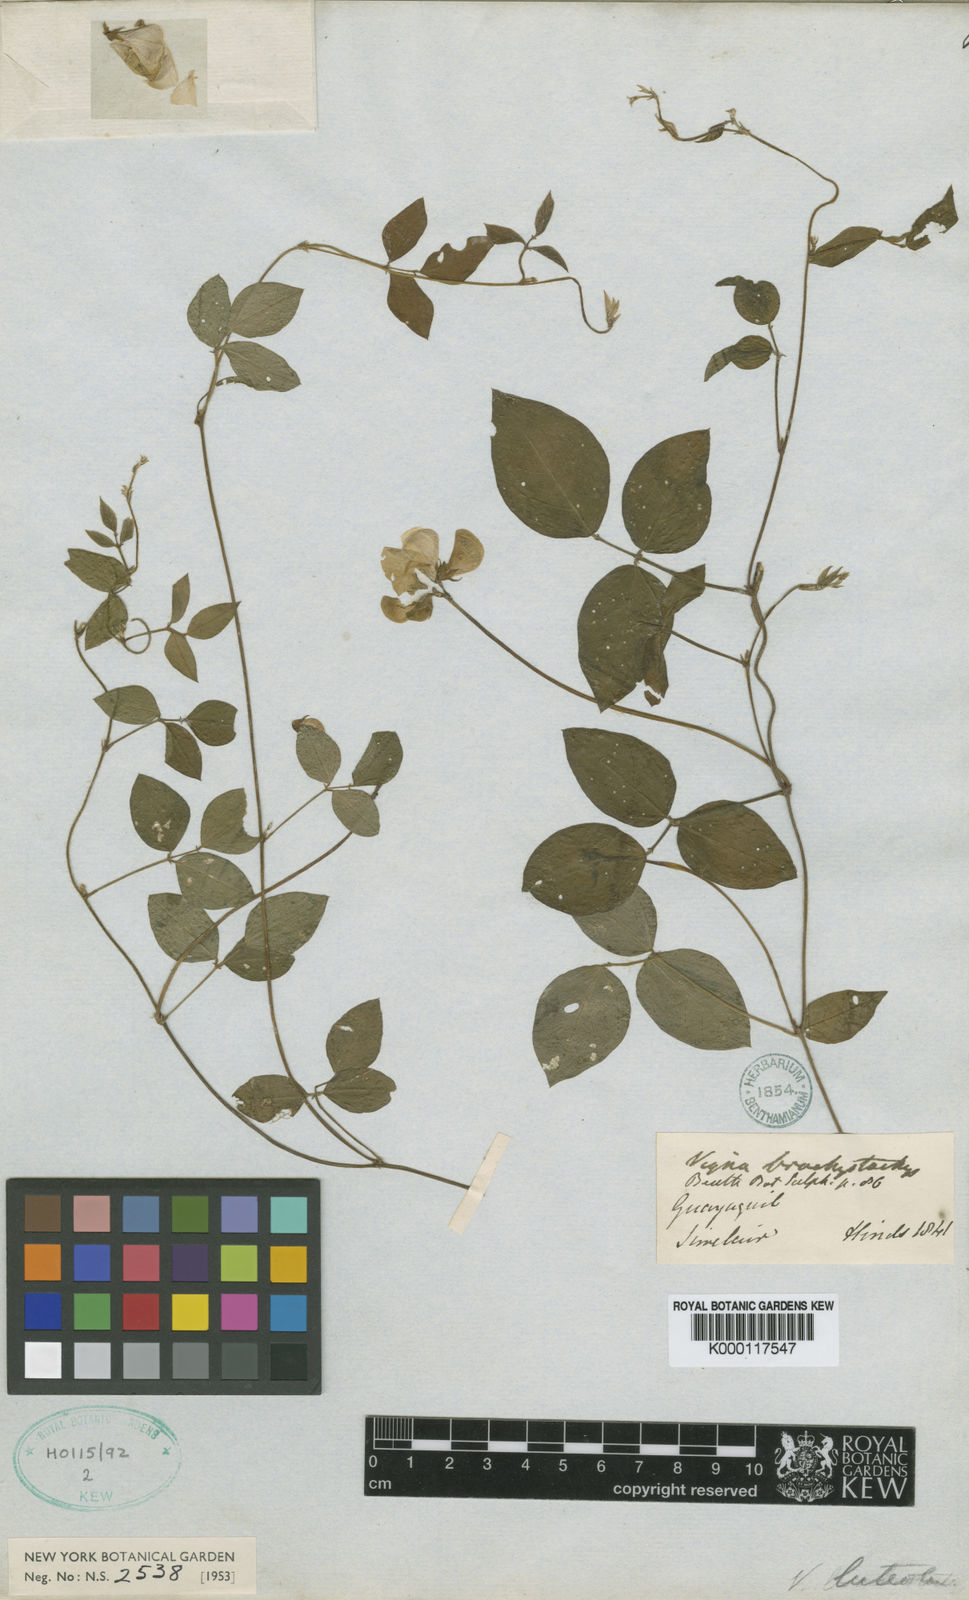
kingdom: Plantae
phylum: Tracheophyta
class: Magnoliopsida
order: Fabales
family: Fabaceae
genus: Vigna
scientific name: Vigna luteola
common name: Hairypod cowpea
